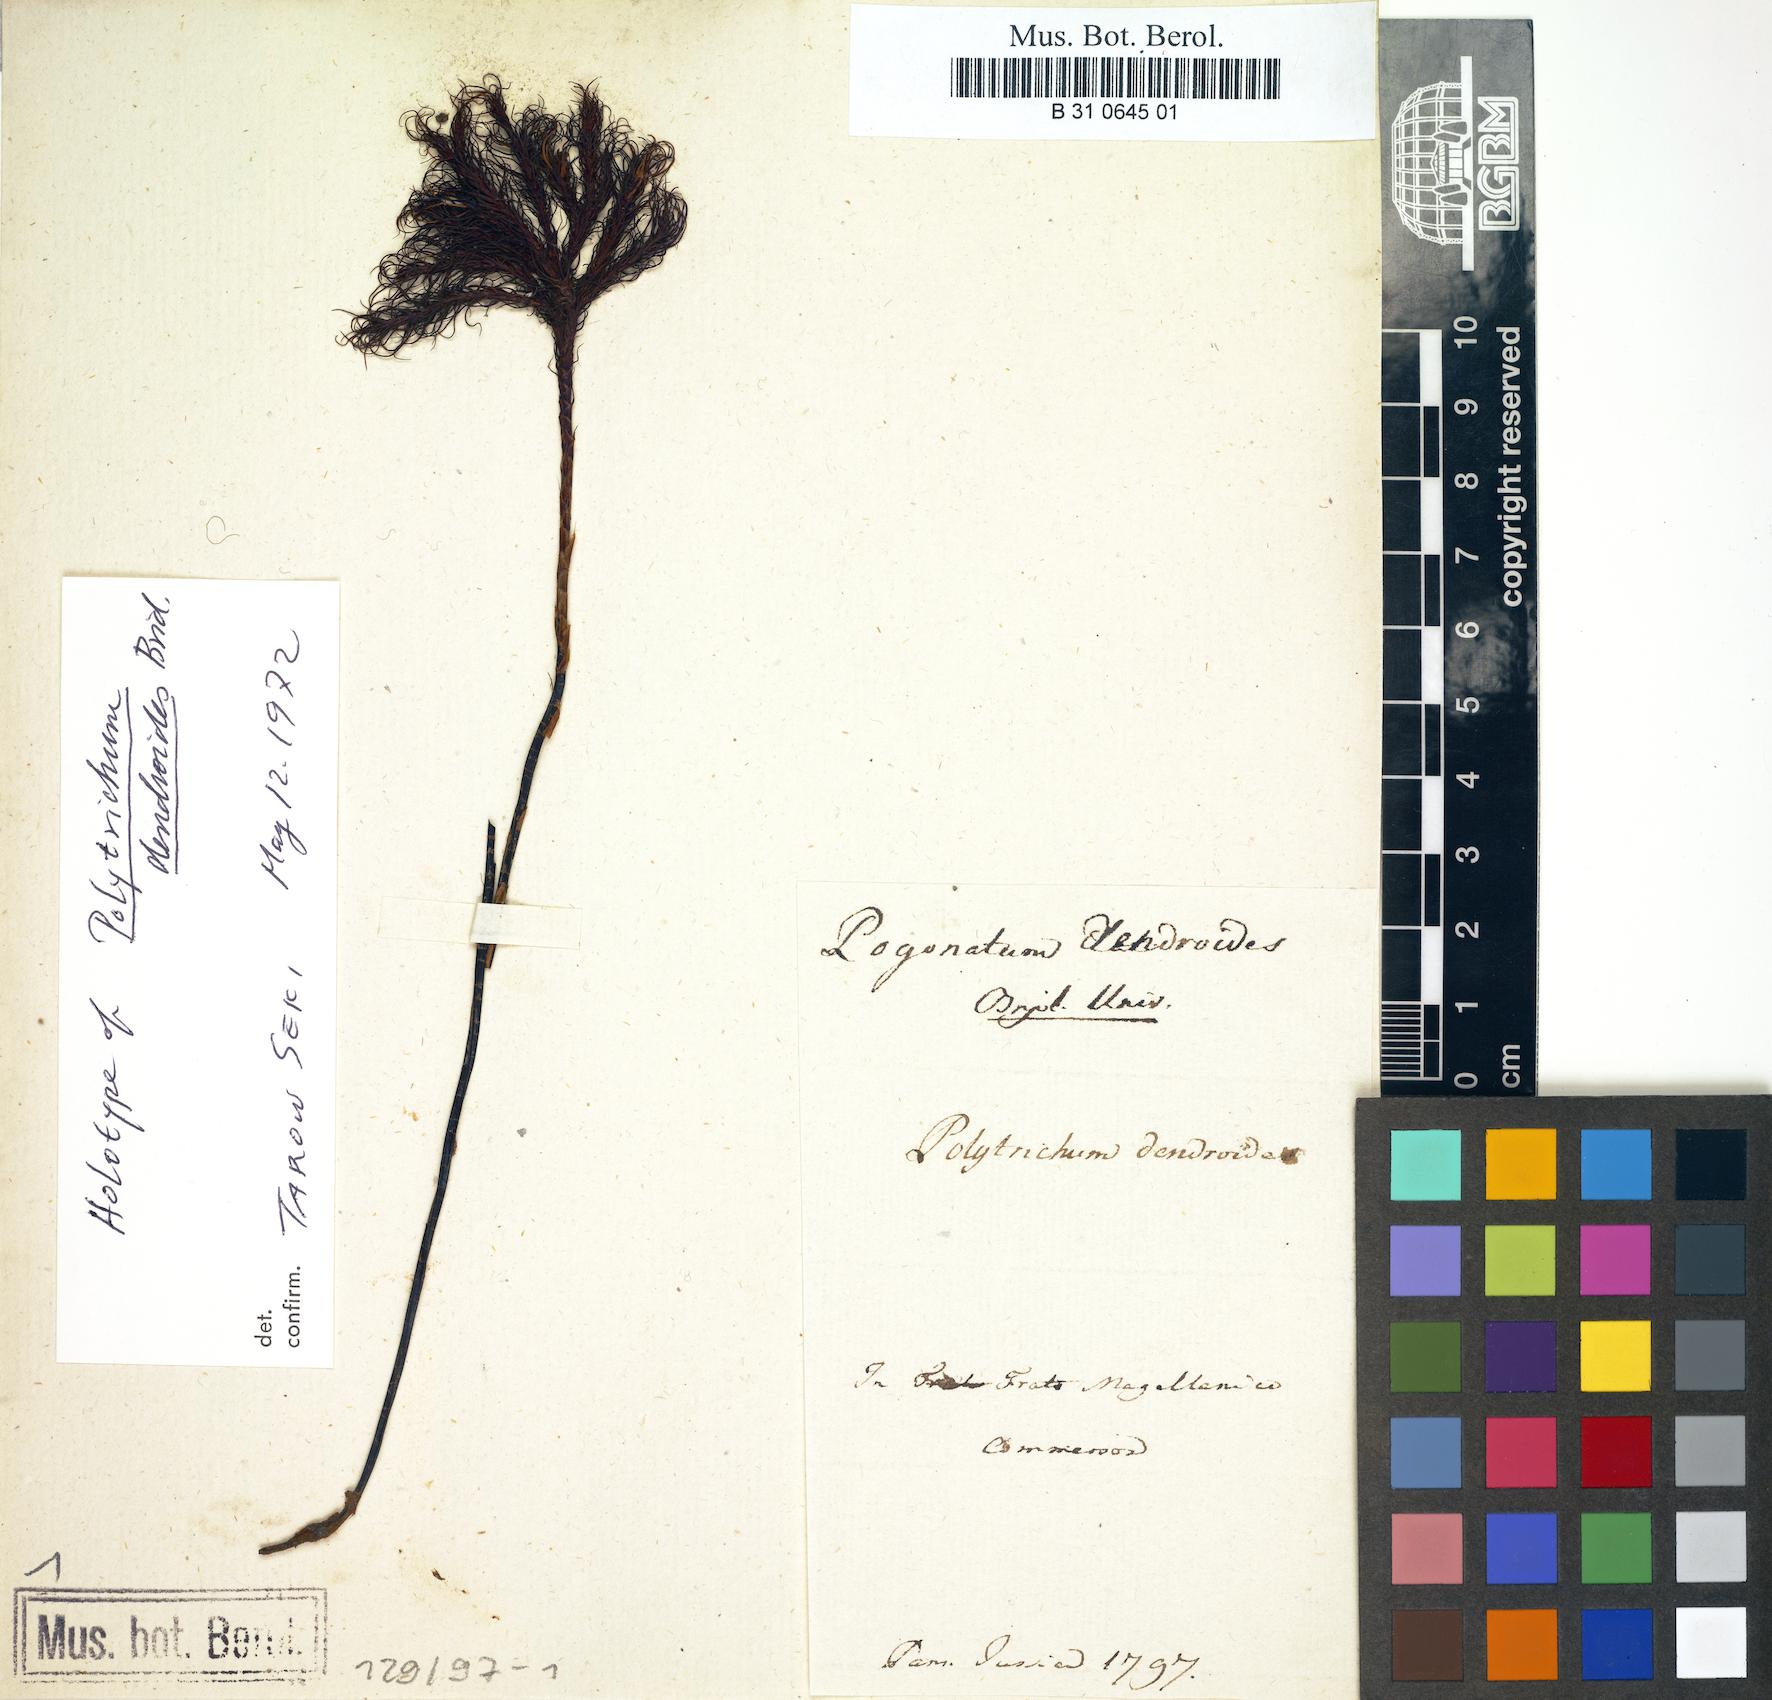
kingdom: Plantae
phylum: Bryophyta
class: Polytrichopsida
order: Polytrichales
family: Polytrichaceae
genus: Dendroligotrichum
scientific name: Dendroligotrichum dendroides
